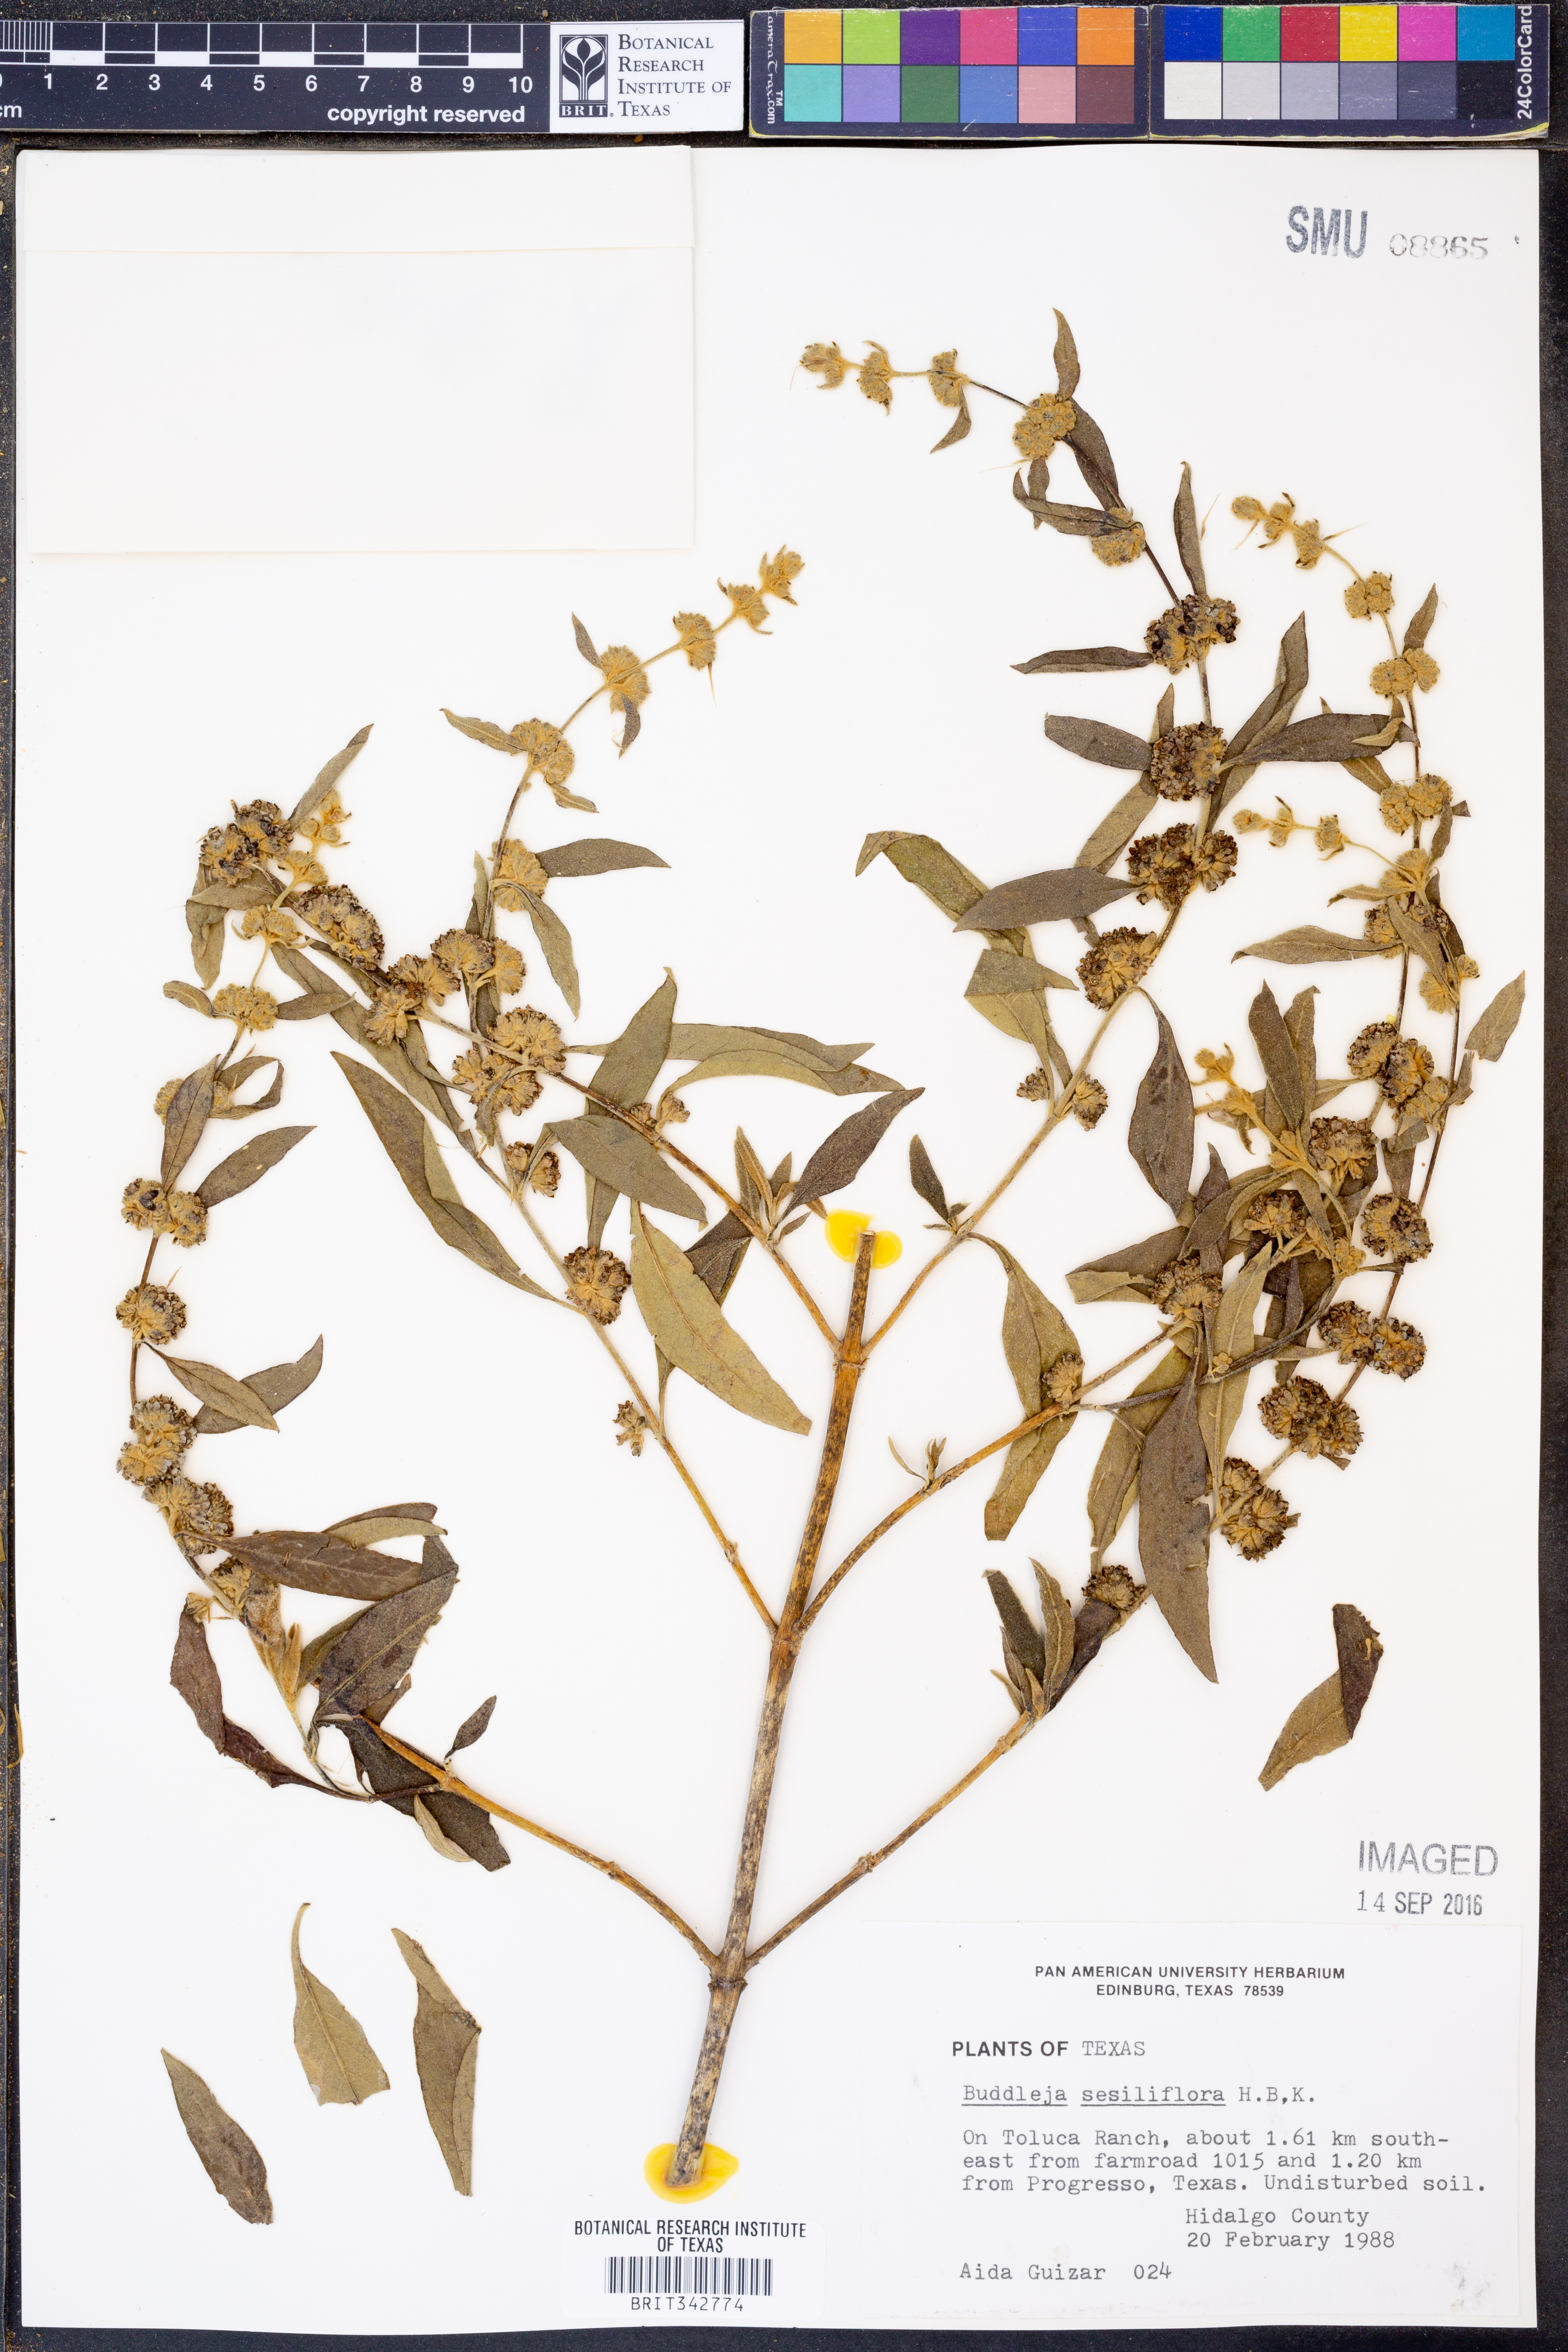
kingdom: Plantae
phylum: Tracheophyta
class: Magnoliopsida
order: Lamiales
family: Scrophulariaceae
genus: Buddleja
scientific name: Buddleja sessiliflora
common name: Rio grande butterfly-bush
